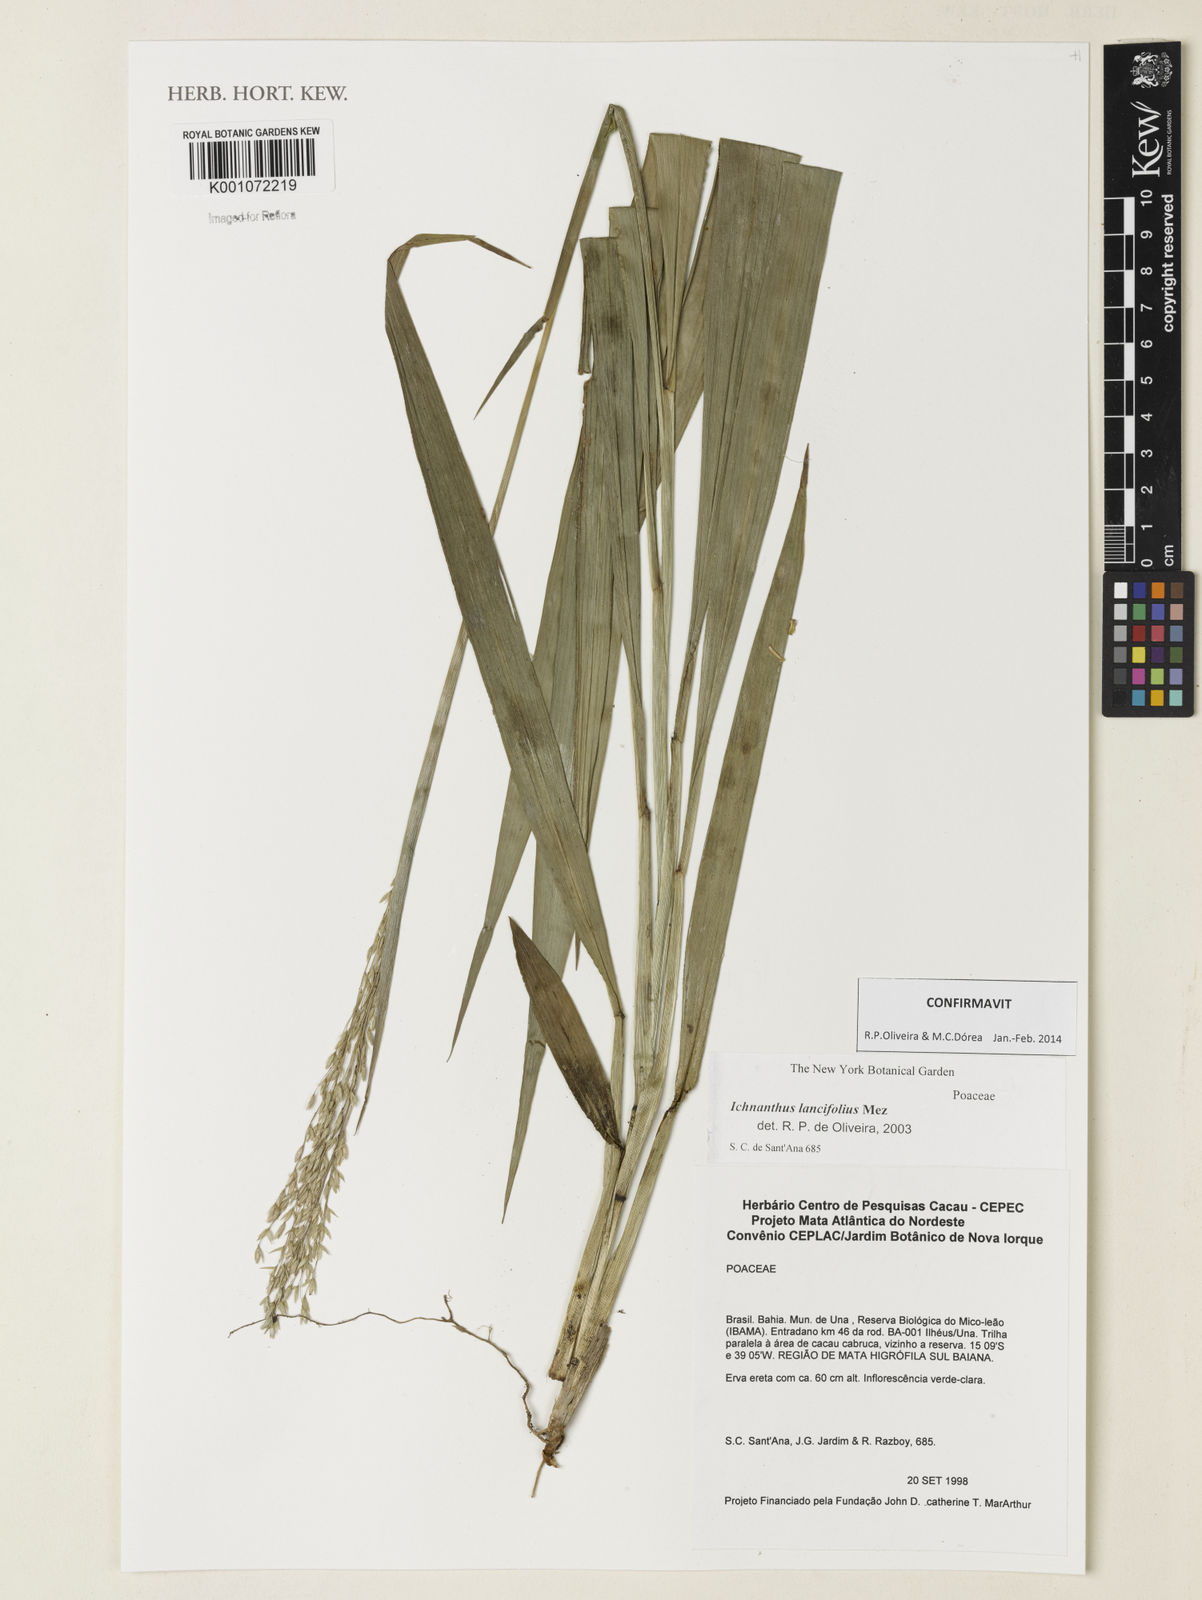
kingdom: Plantae
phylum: Tracheophyta
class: Magnoliopsida
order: Myrtales
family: Lythraceae
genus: Rotala
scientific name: Rotala ramosior
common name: Lowland rotala
